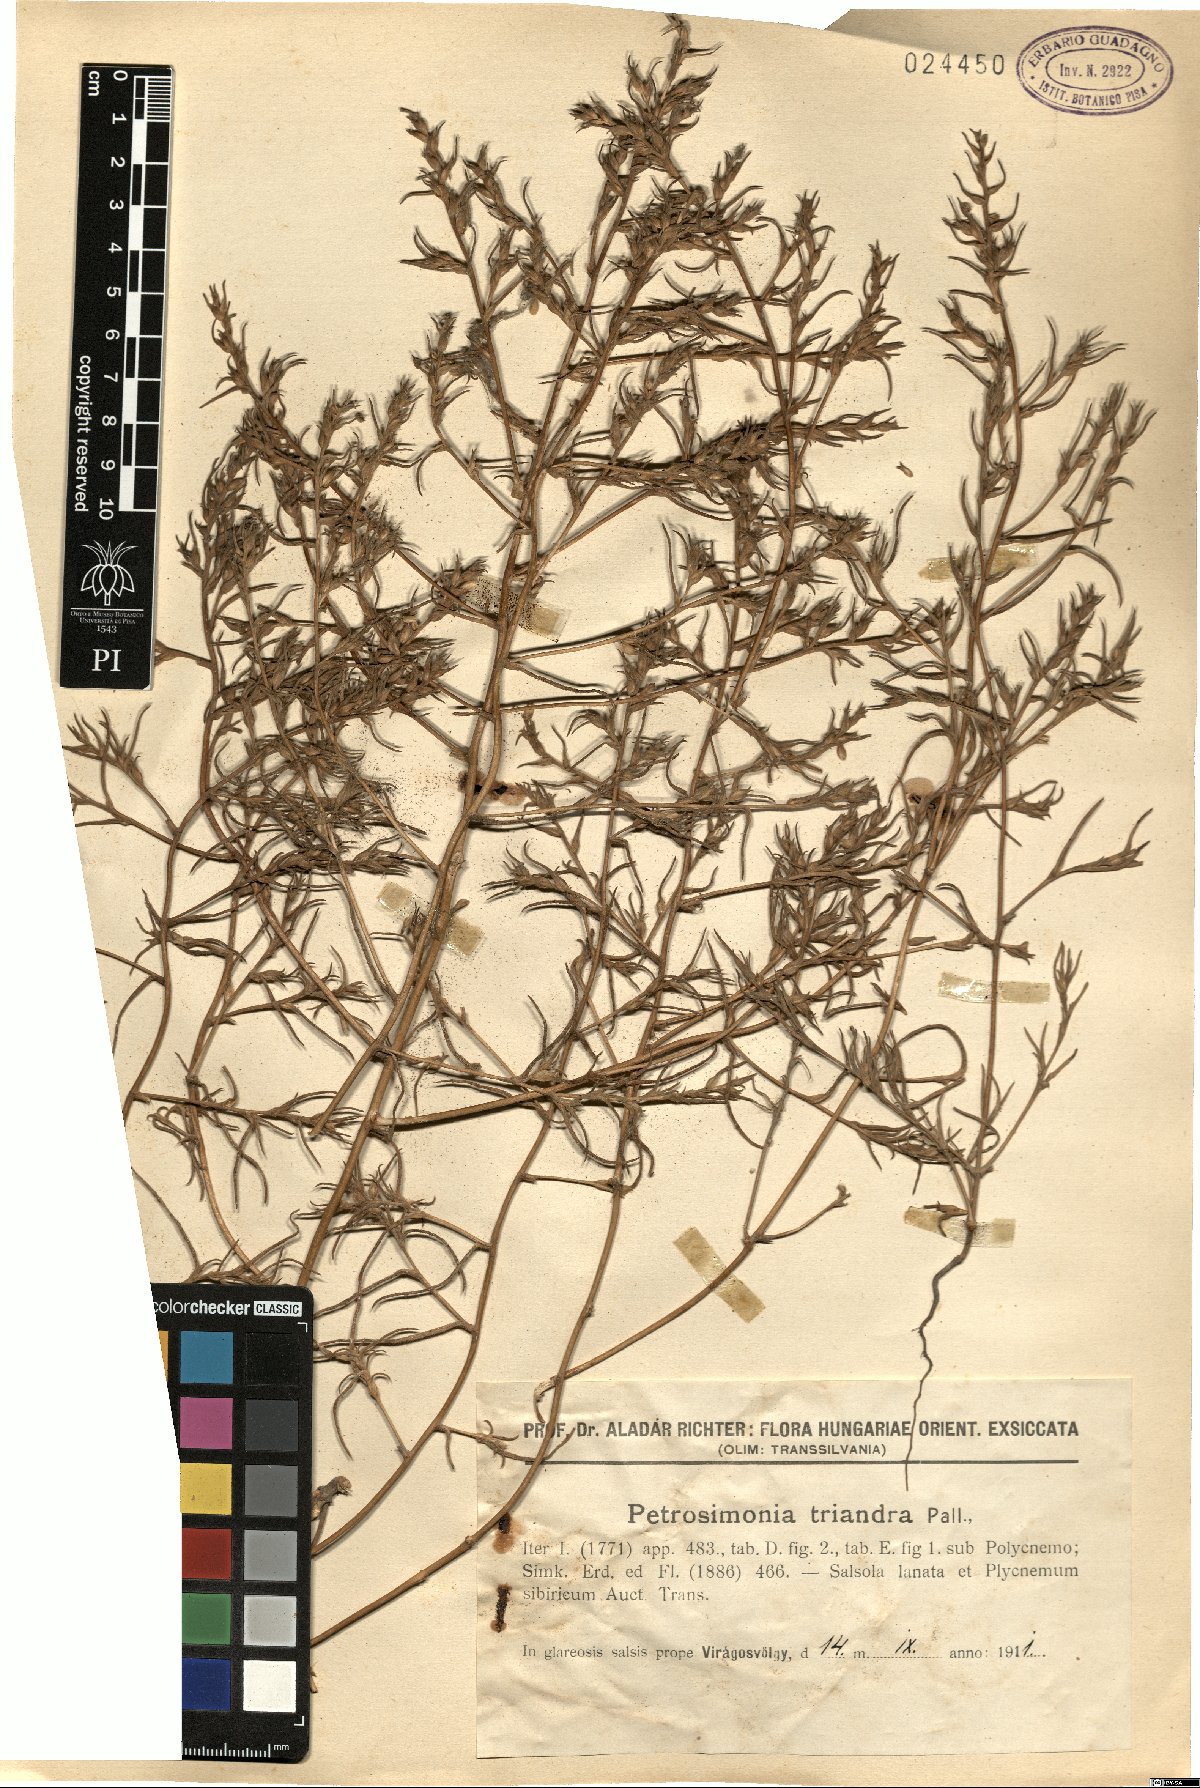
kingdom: Plantae
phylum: Tracheophyta
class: Magnoliopsida
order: Caryophyllales
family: Amaranthaceae
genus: Petrosimonia
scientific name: Petrosimonia triandra
